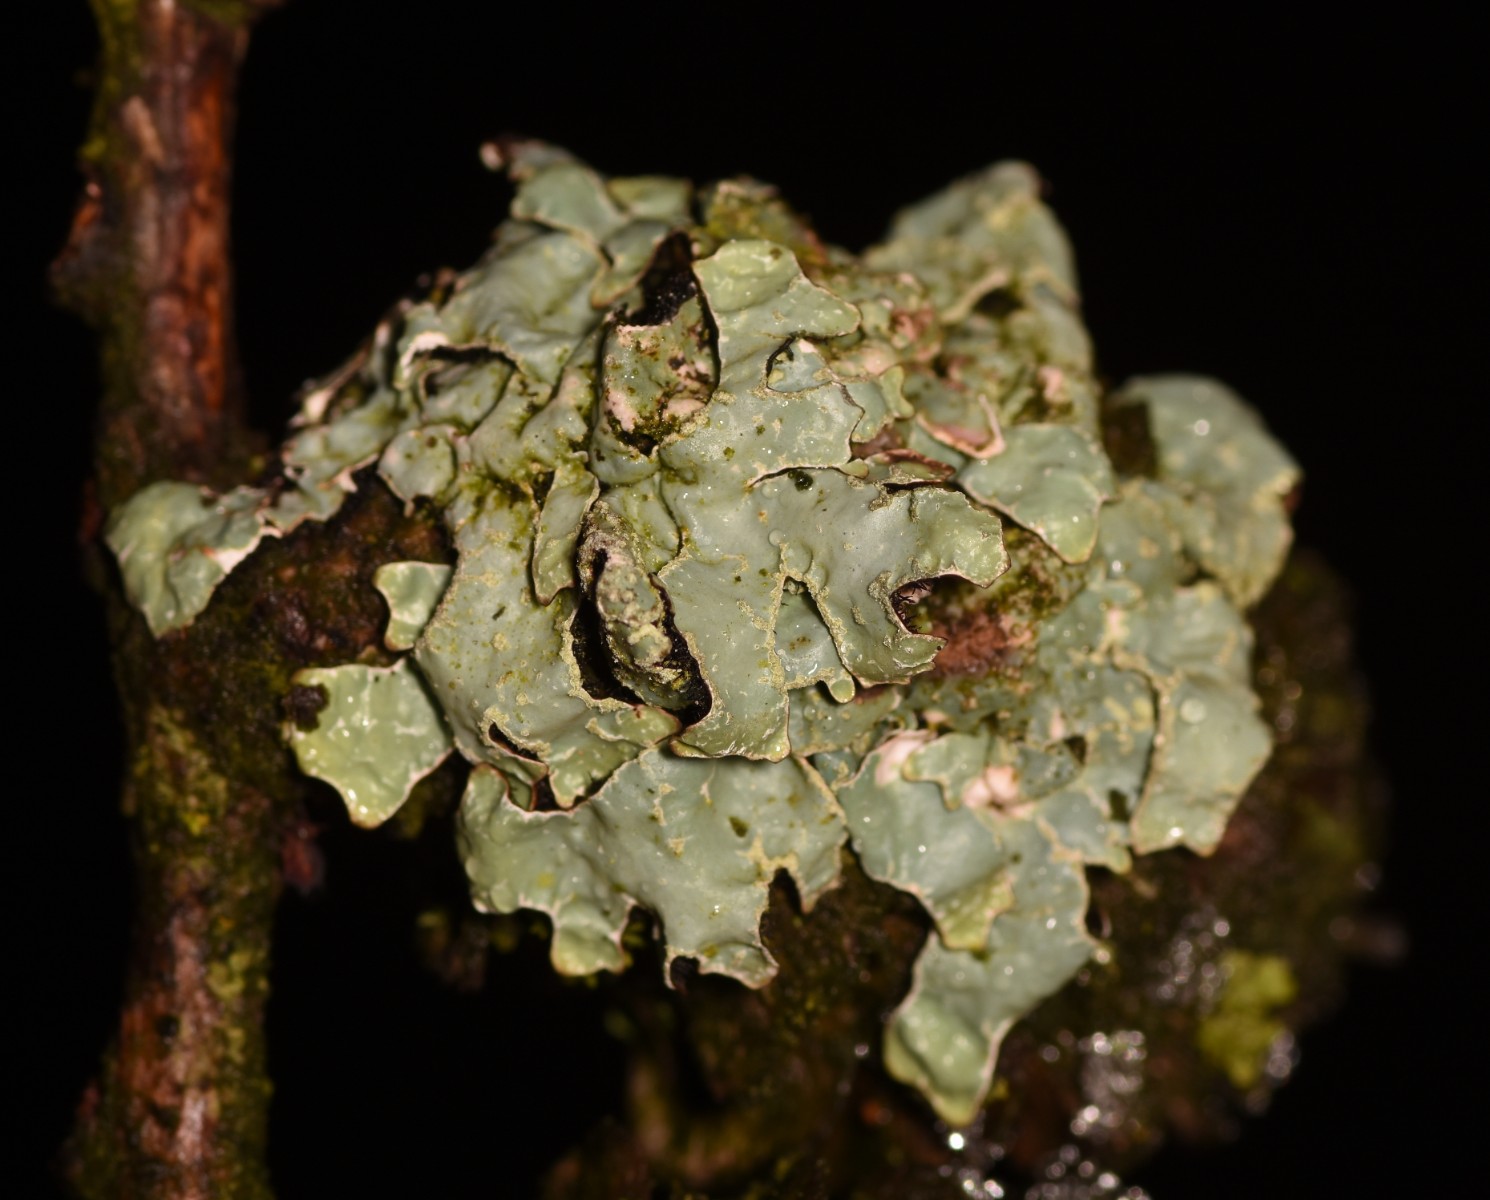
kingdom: Fungi
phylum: Ascomycota
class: Lecanoromycetes
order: Lecanorales
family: Parmeliaceae
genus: Parmelia
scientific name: Parmelia sulcata
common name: rynket skållav
